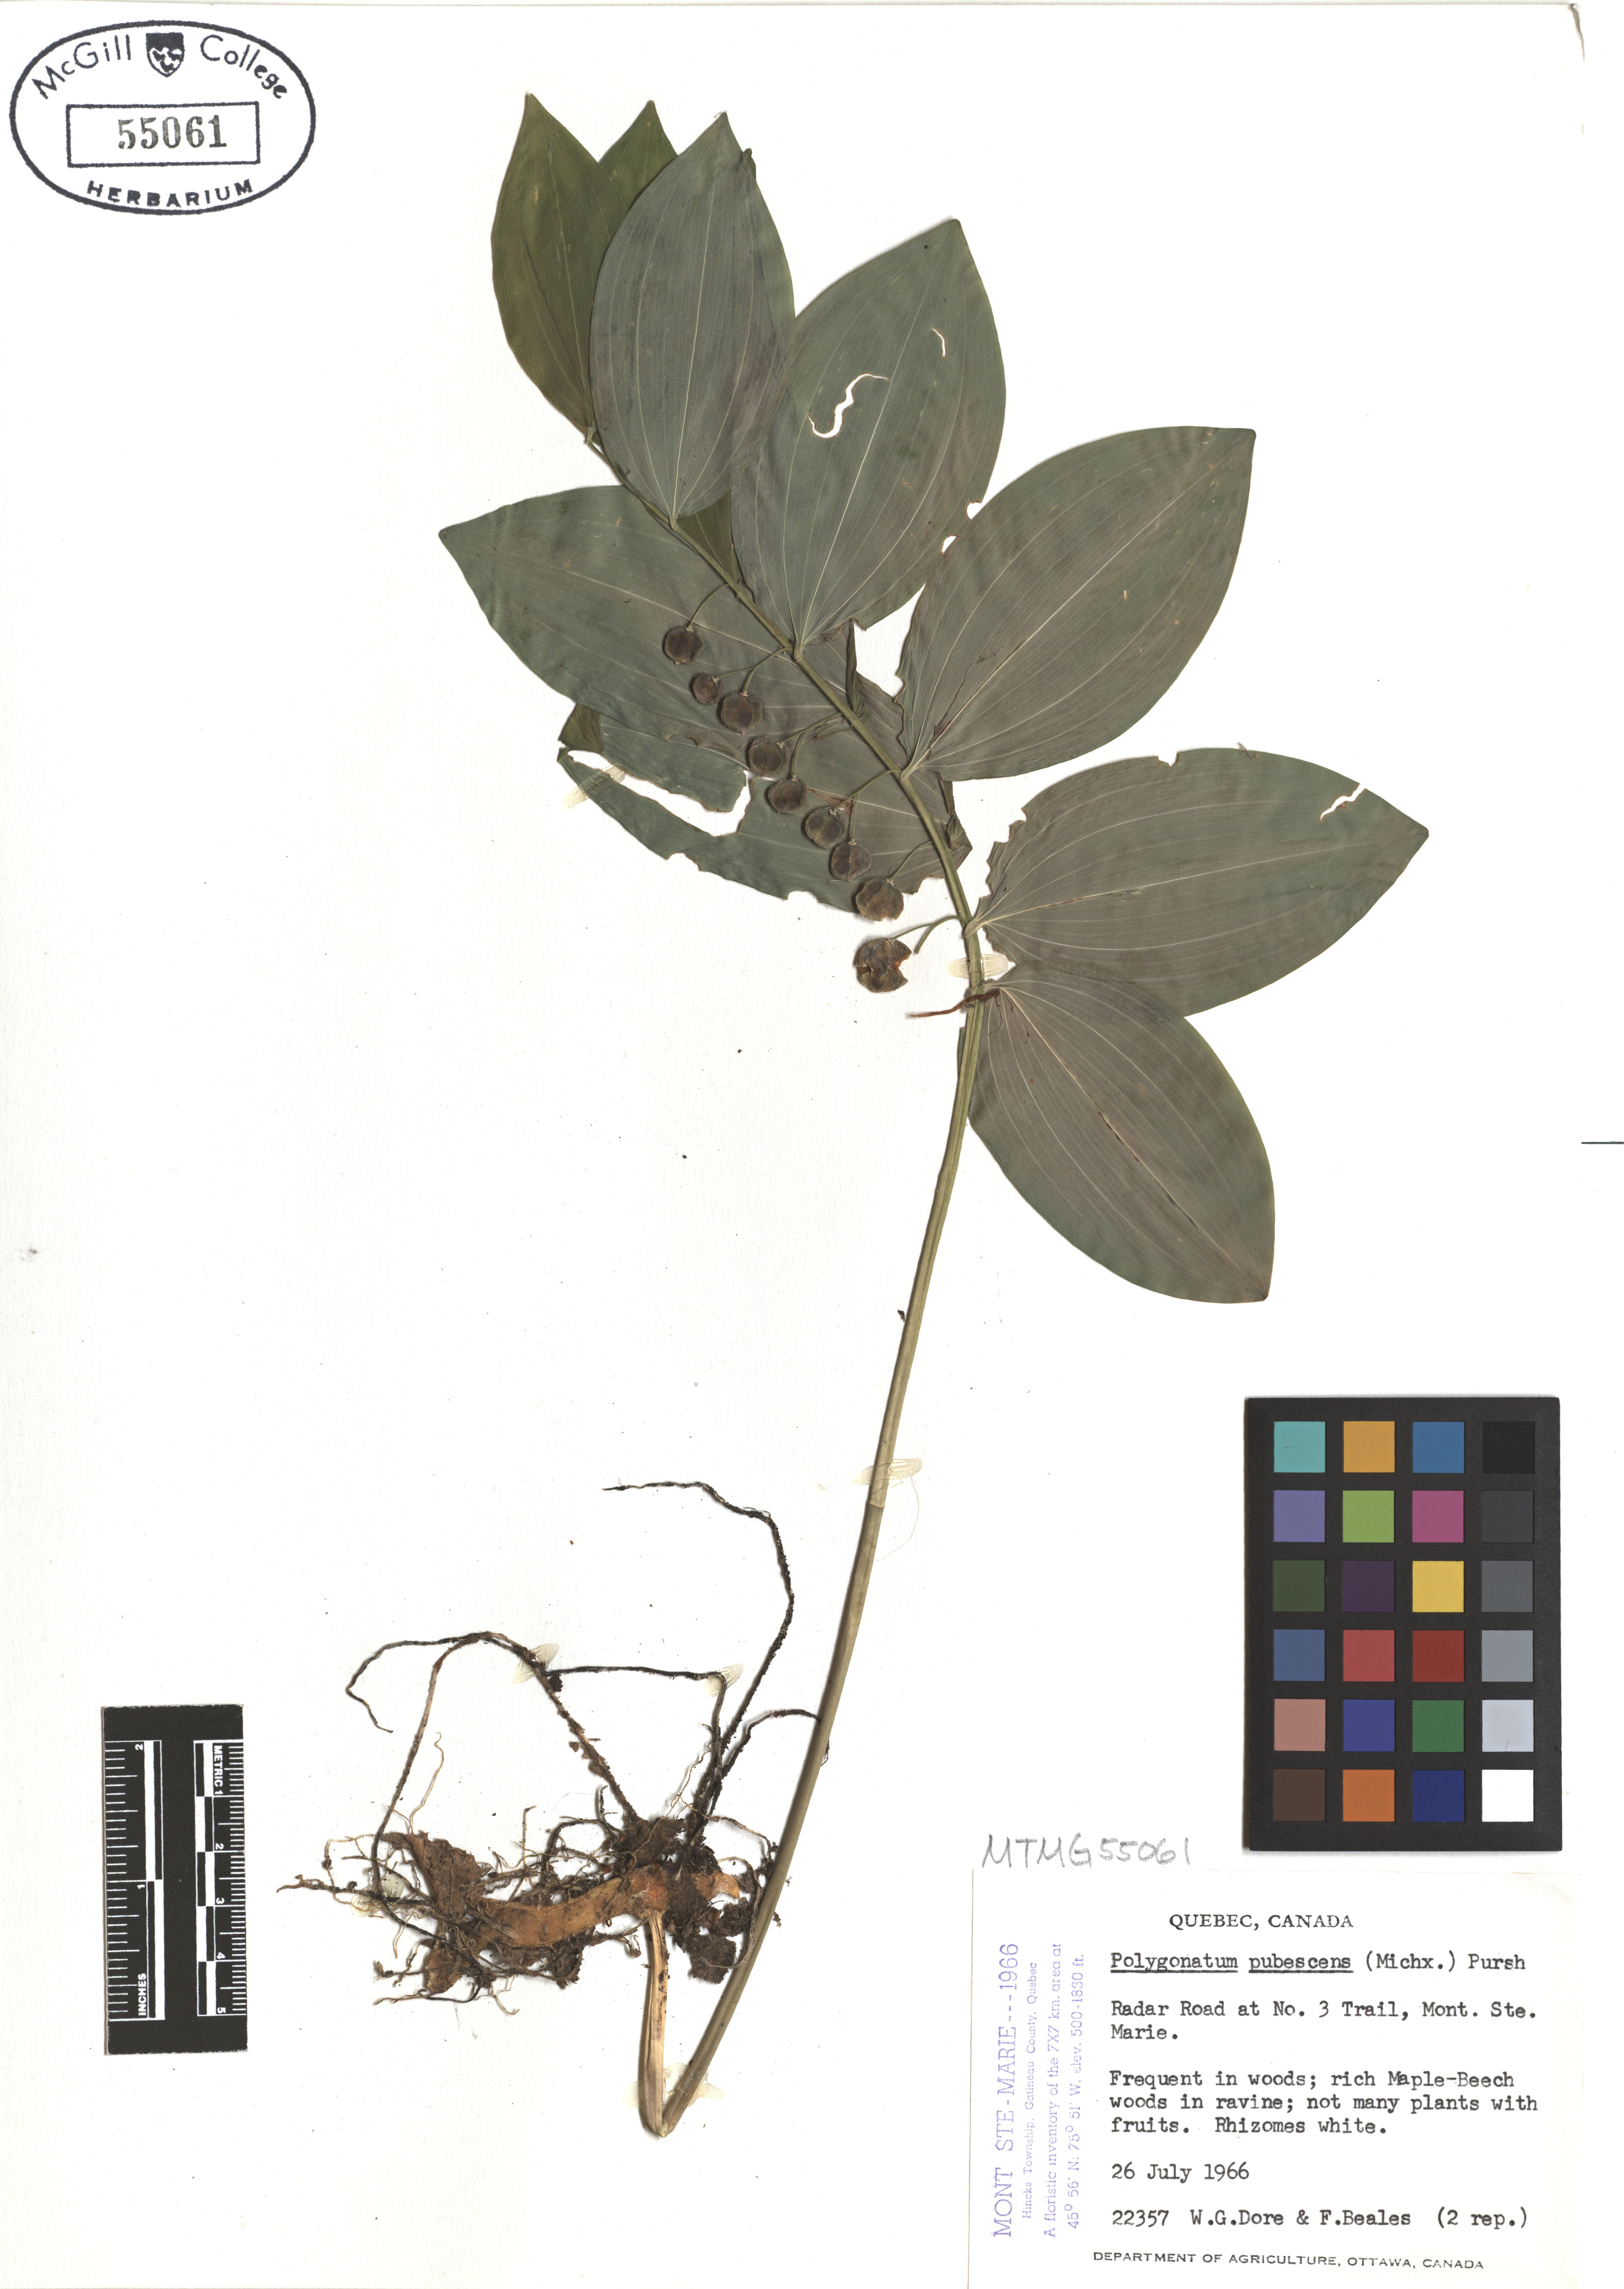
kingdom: Plantae
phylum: Tracheophyta
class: Liliopsida
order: Asparagales
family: Asparagaceae
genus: Polygonatum
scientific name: Polygonatum pubescens
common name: Downy solomon's seal
